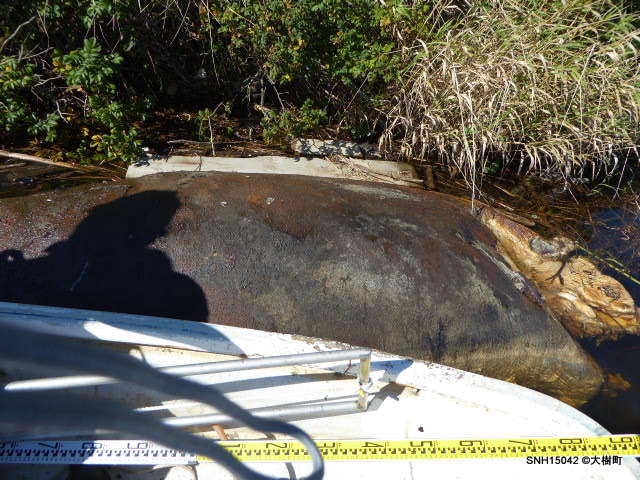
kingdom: Animalia
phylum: Chordata
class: Mammalia
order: Cetacea
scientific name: Cetacea
